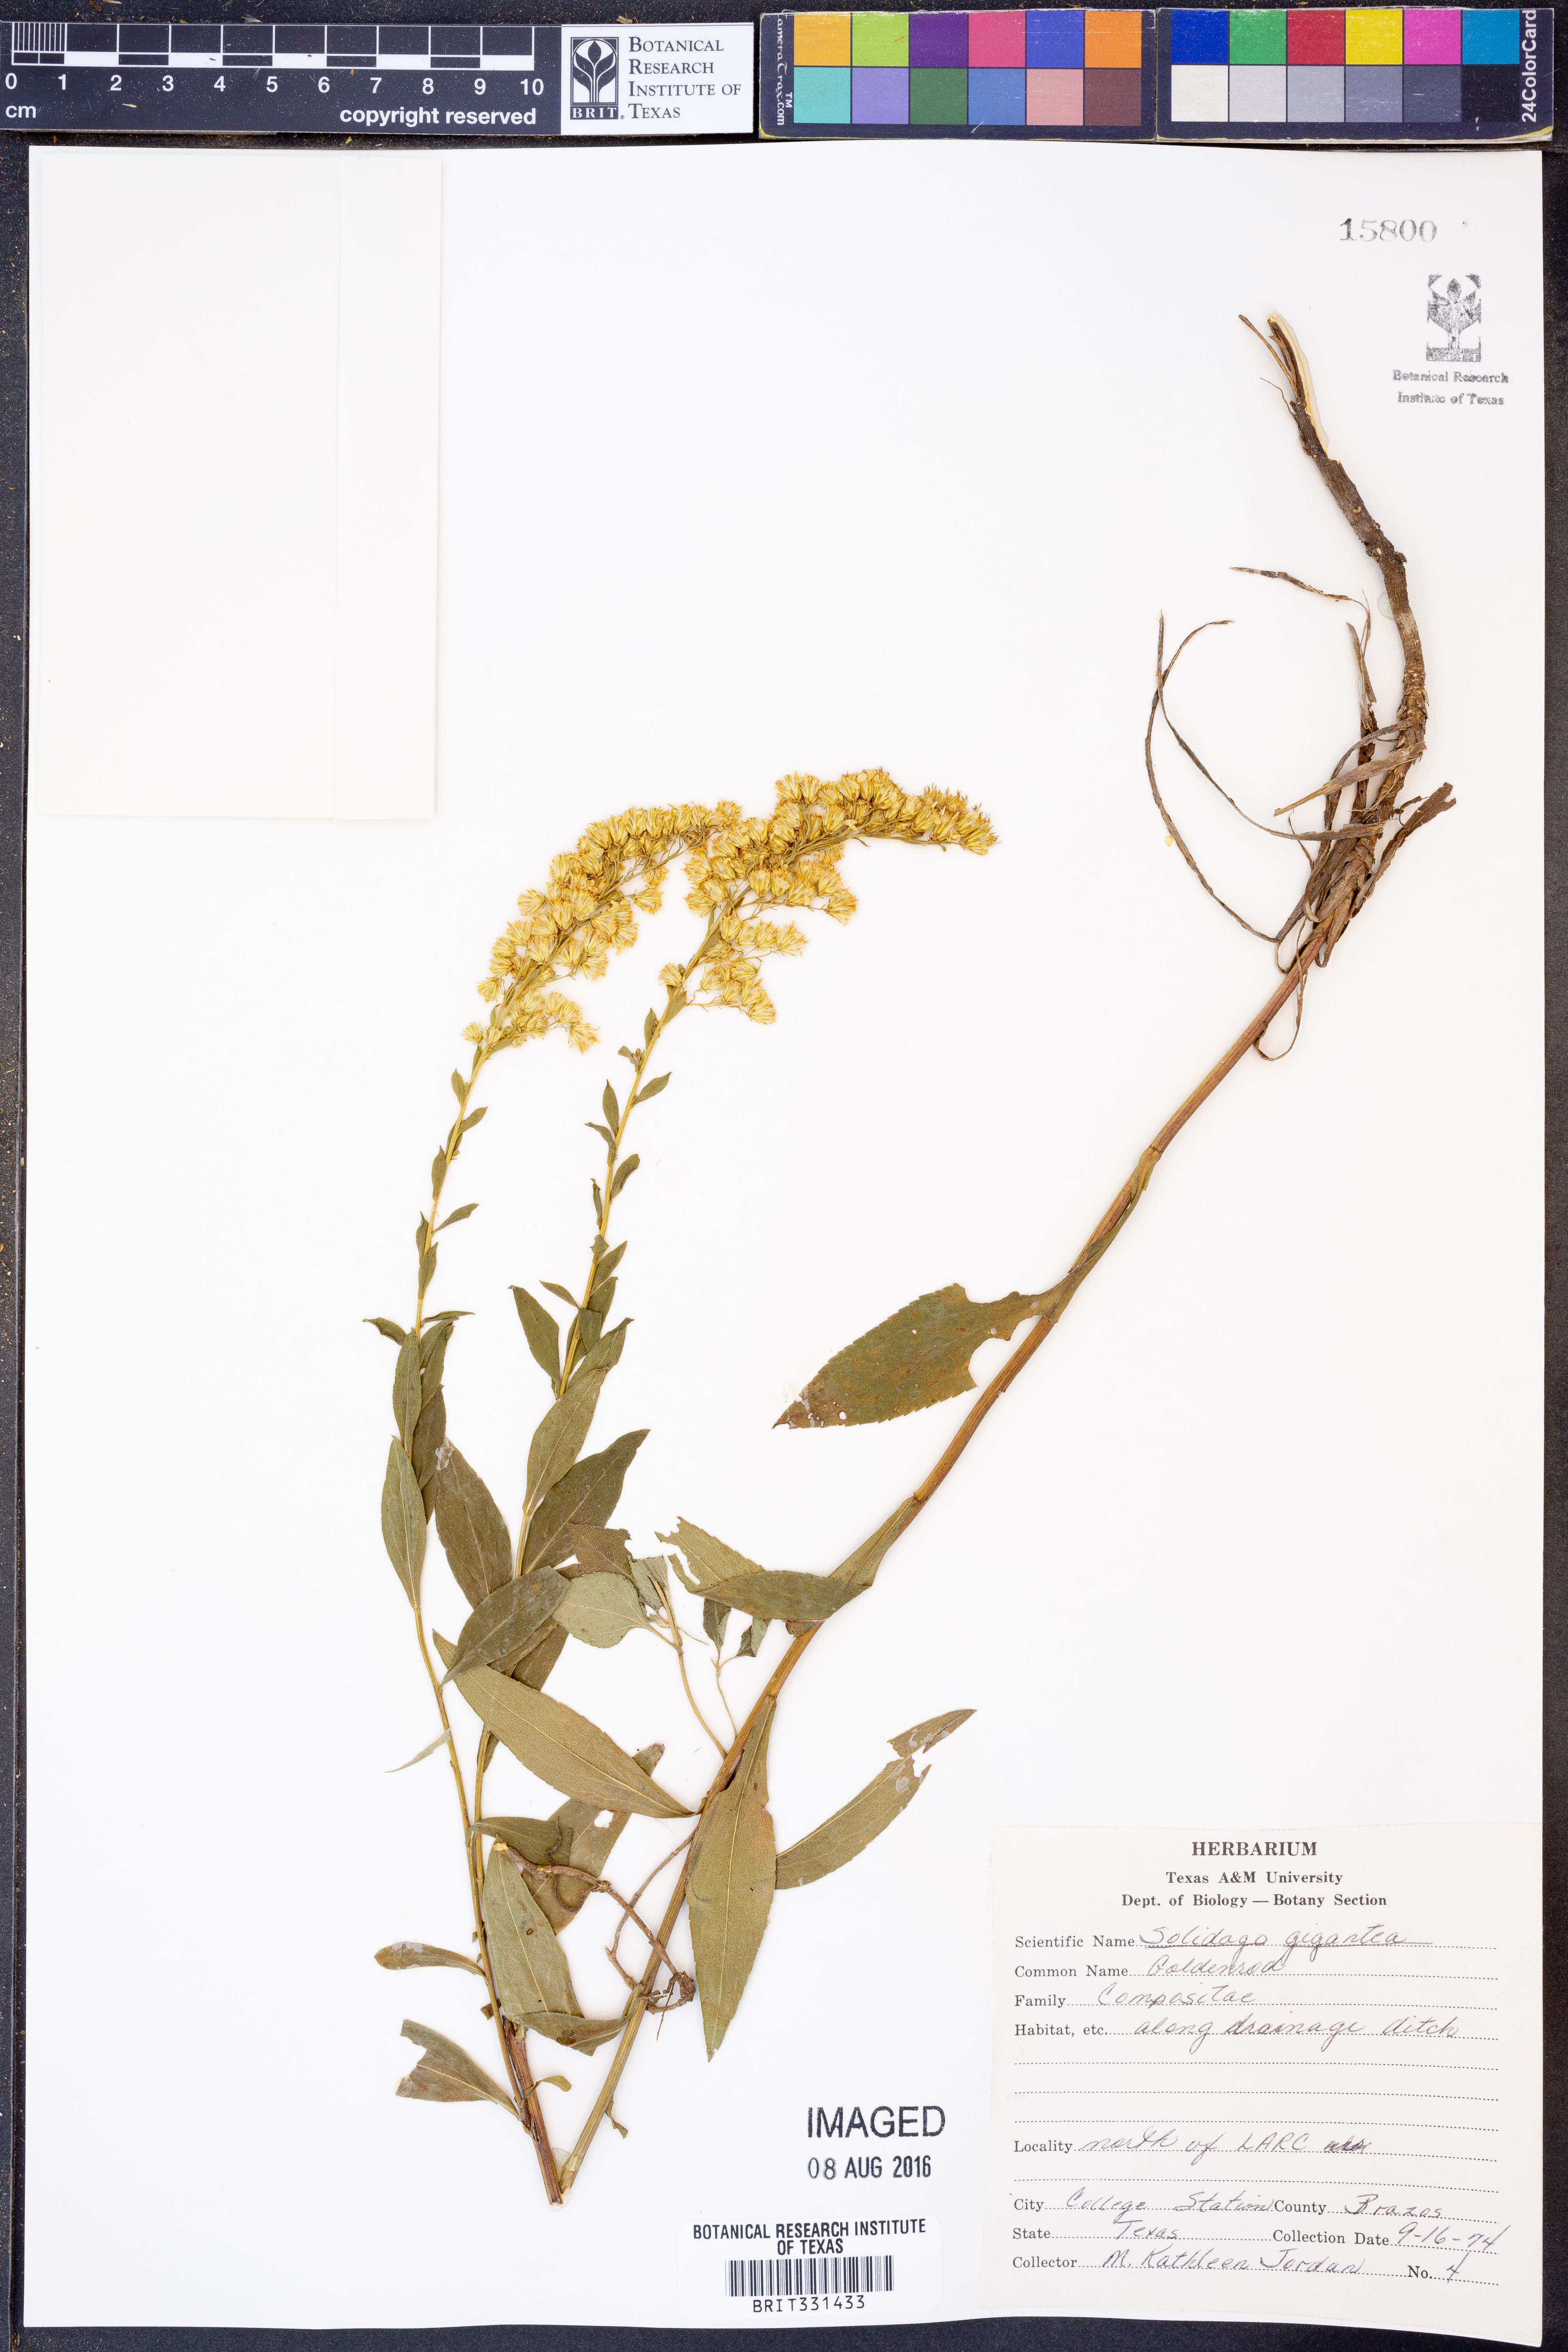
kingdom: Plantae
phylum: Tracheophyta
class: Magnoliopsida
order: Asterales
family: Asteraceae
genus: Solidago
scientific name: Solidago gigantea
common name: Giant goldenrod
